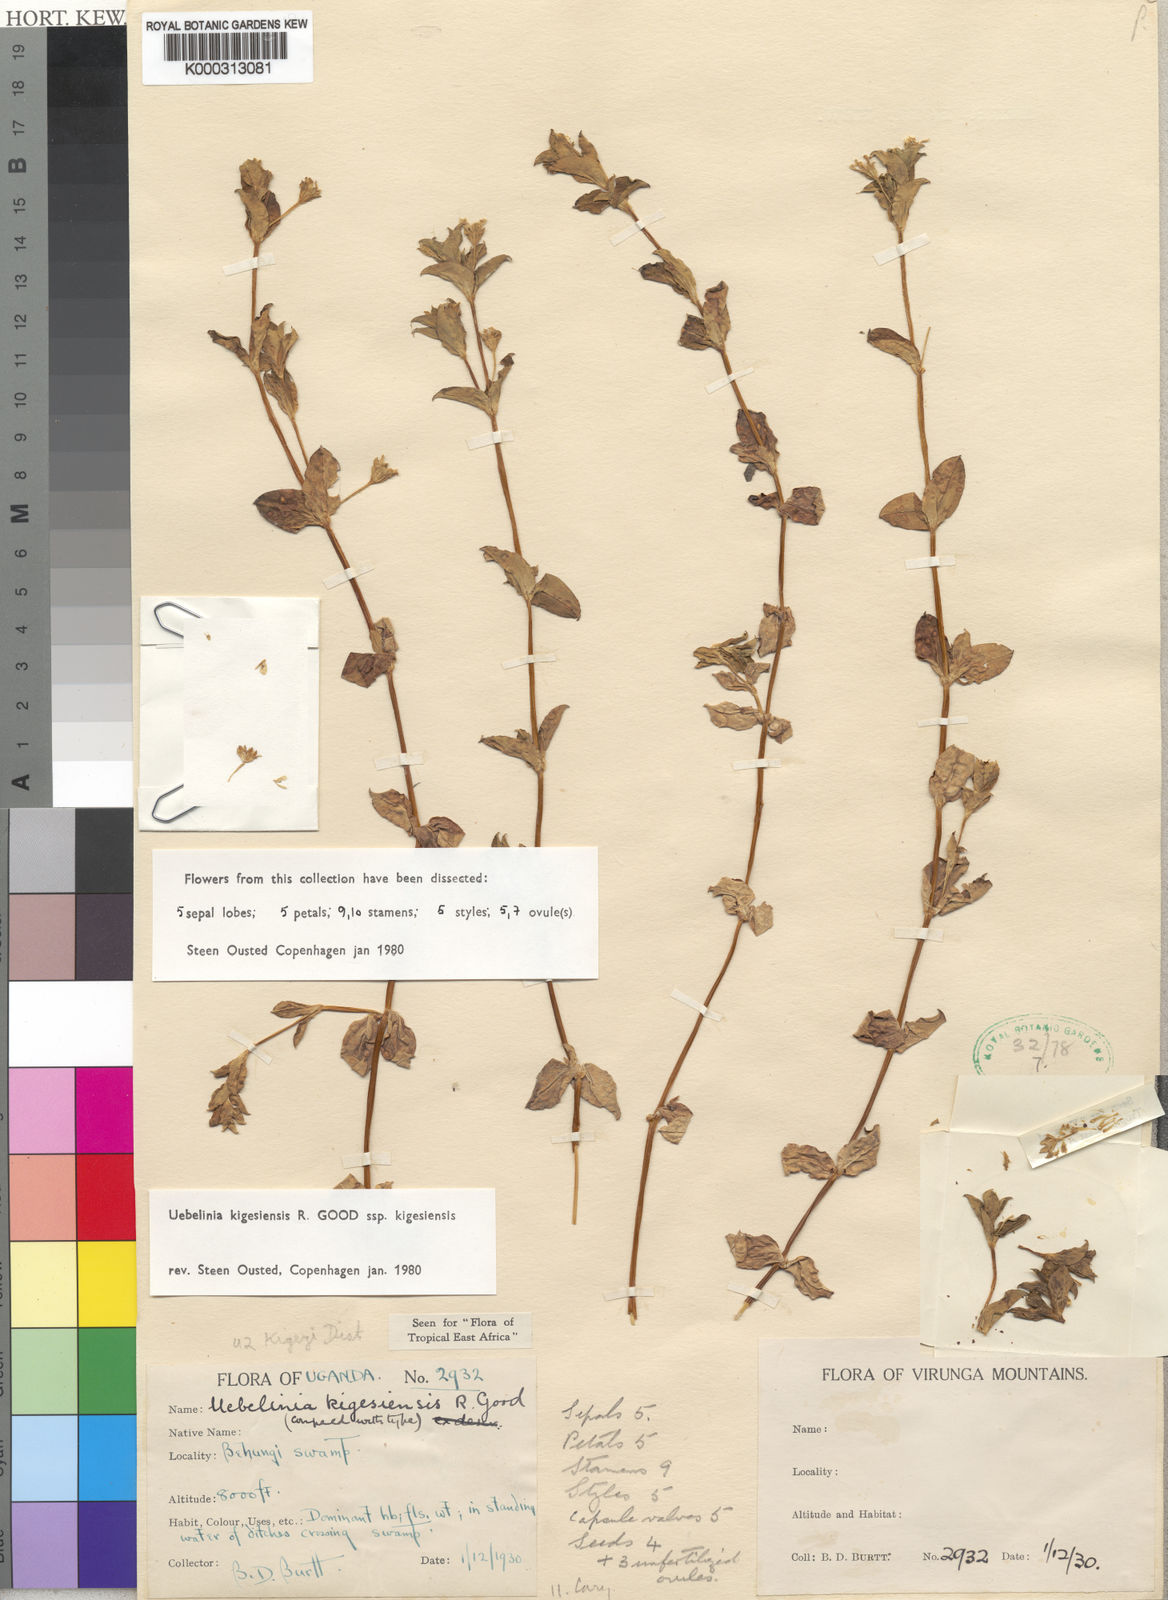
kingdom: Plantae
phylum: Tracheophyta
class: Magnoliopsida
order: Caryophyllales
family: Caryophyllaceae
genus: Silene
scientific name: Silene kigesiensis
